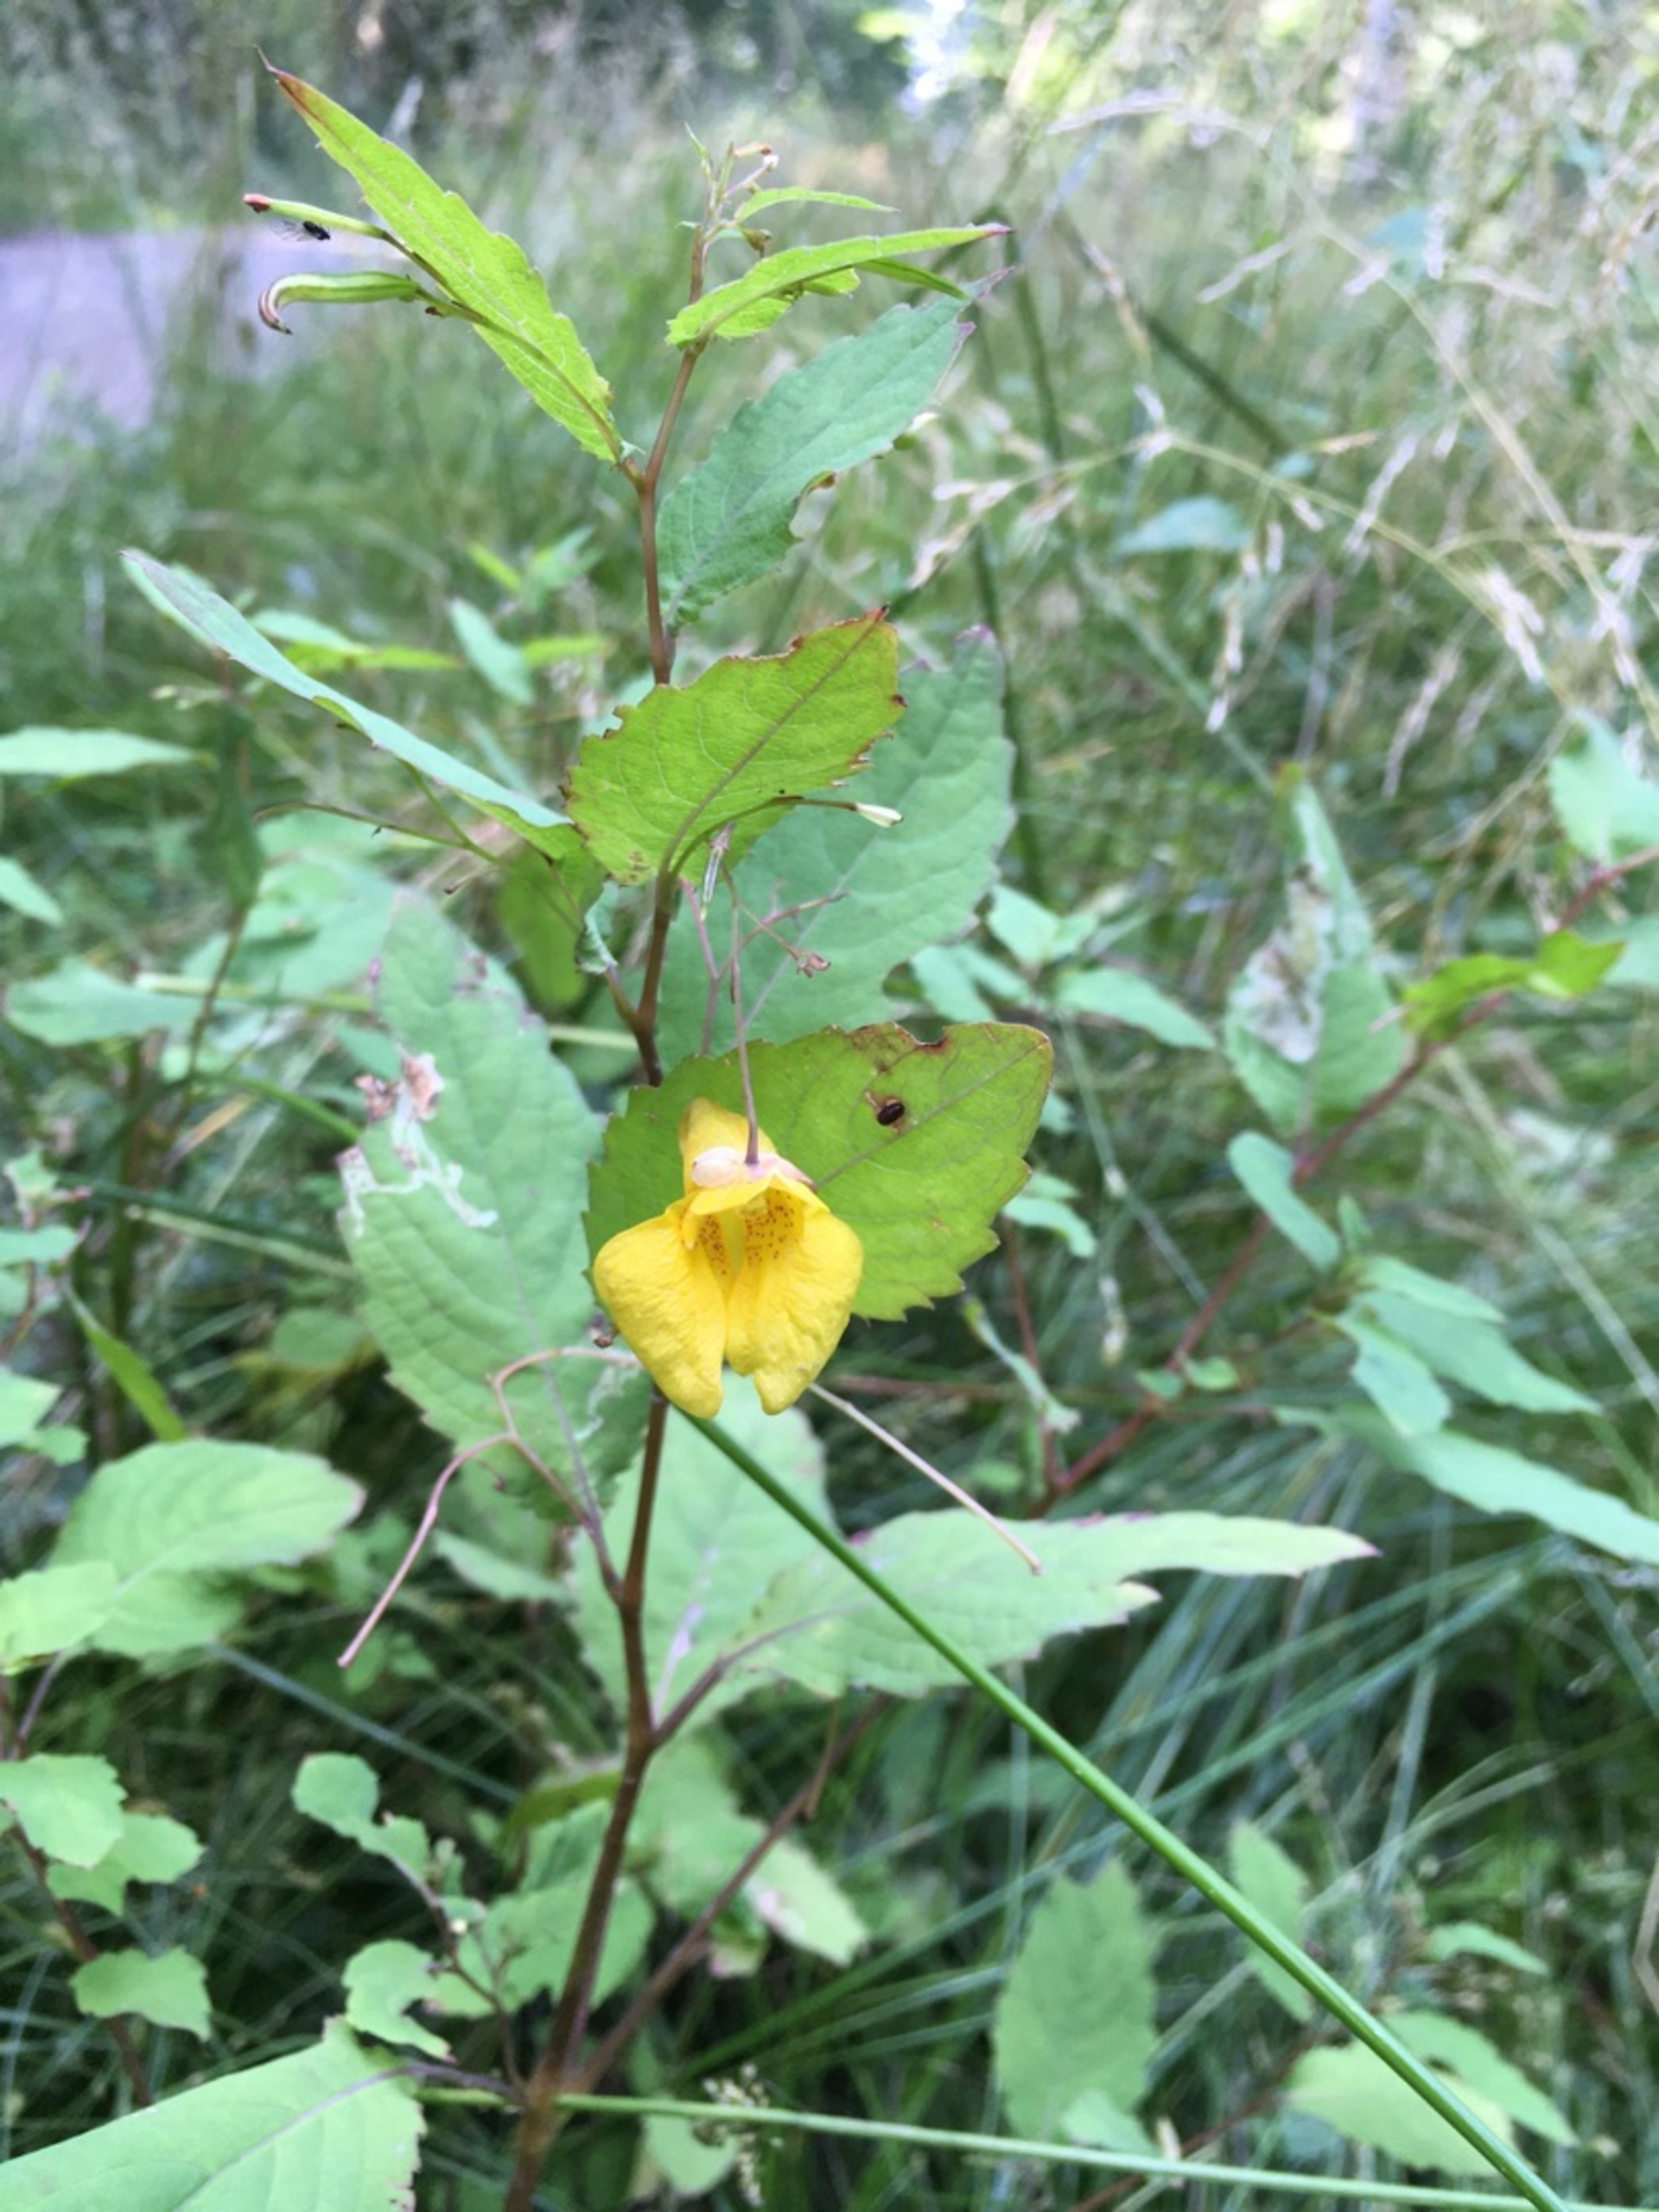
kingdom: Plantae
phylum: Tracheophyta
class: Magnoliopsida
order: Ericales
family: Balsaminaceae
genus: Impatiens
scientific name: Impatiens noli-tangere
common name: Spring-balsamin
